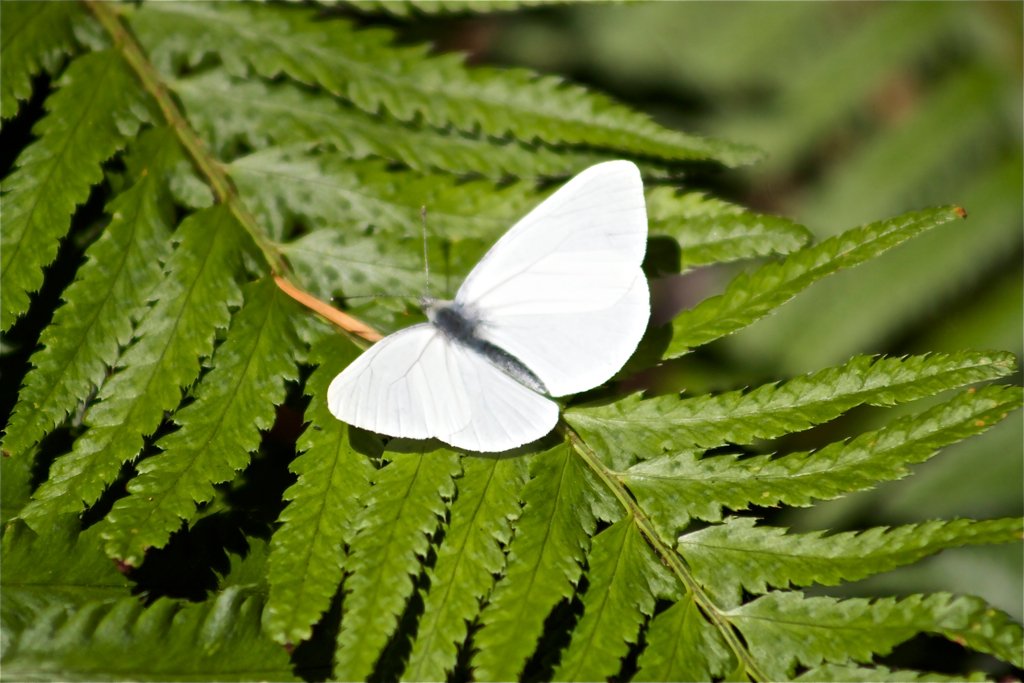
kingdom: Animalia
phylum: Arthropoda
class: Insecta
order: Lepidoptera
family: Pieridae
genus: Pieris
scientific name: Pieris marginalis
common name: Margined White
